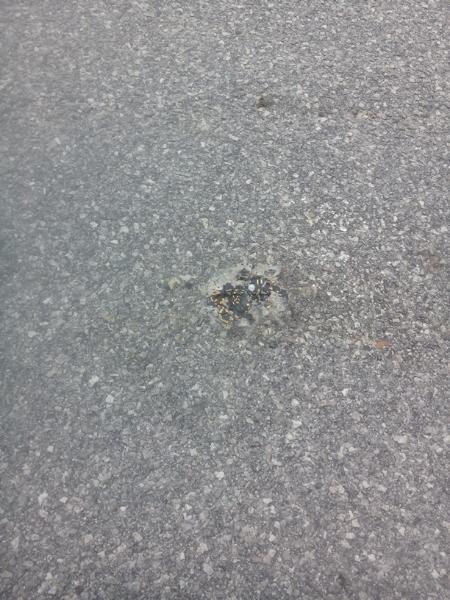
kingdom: Animalia
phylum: Chordata
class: Amphibia
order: Caudata
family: Salamandridae
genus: Salamandra
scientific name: Salamandra salamandra
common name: Fire salamander
